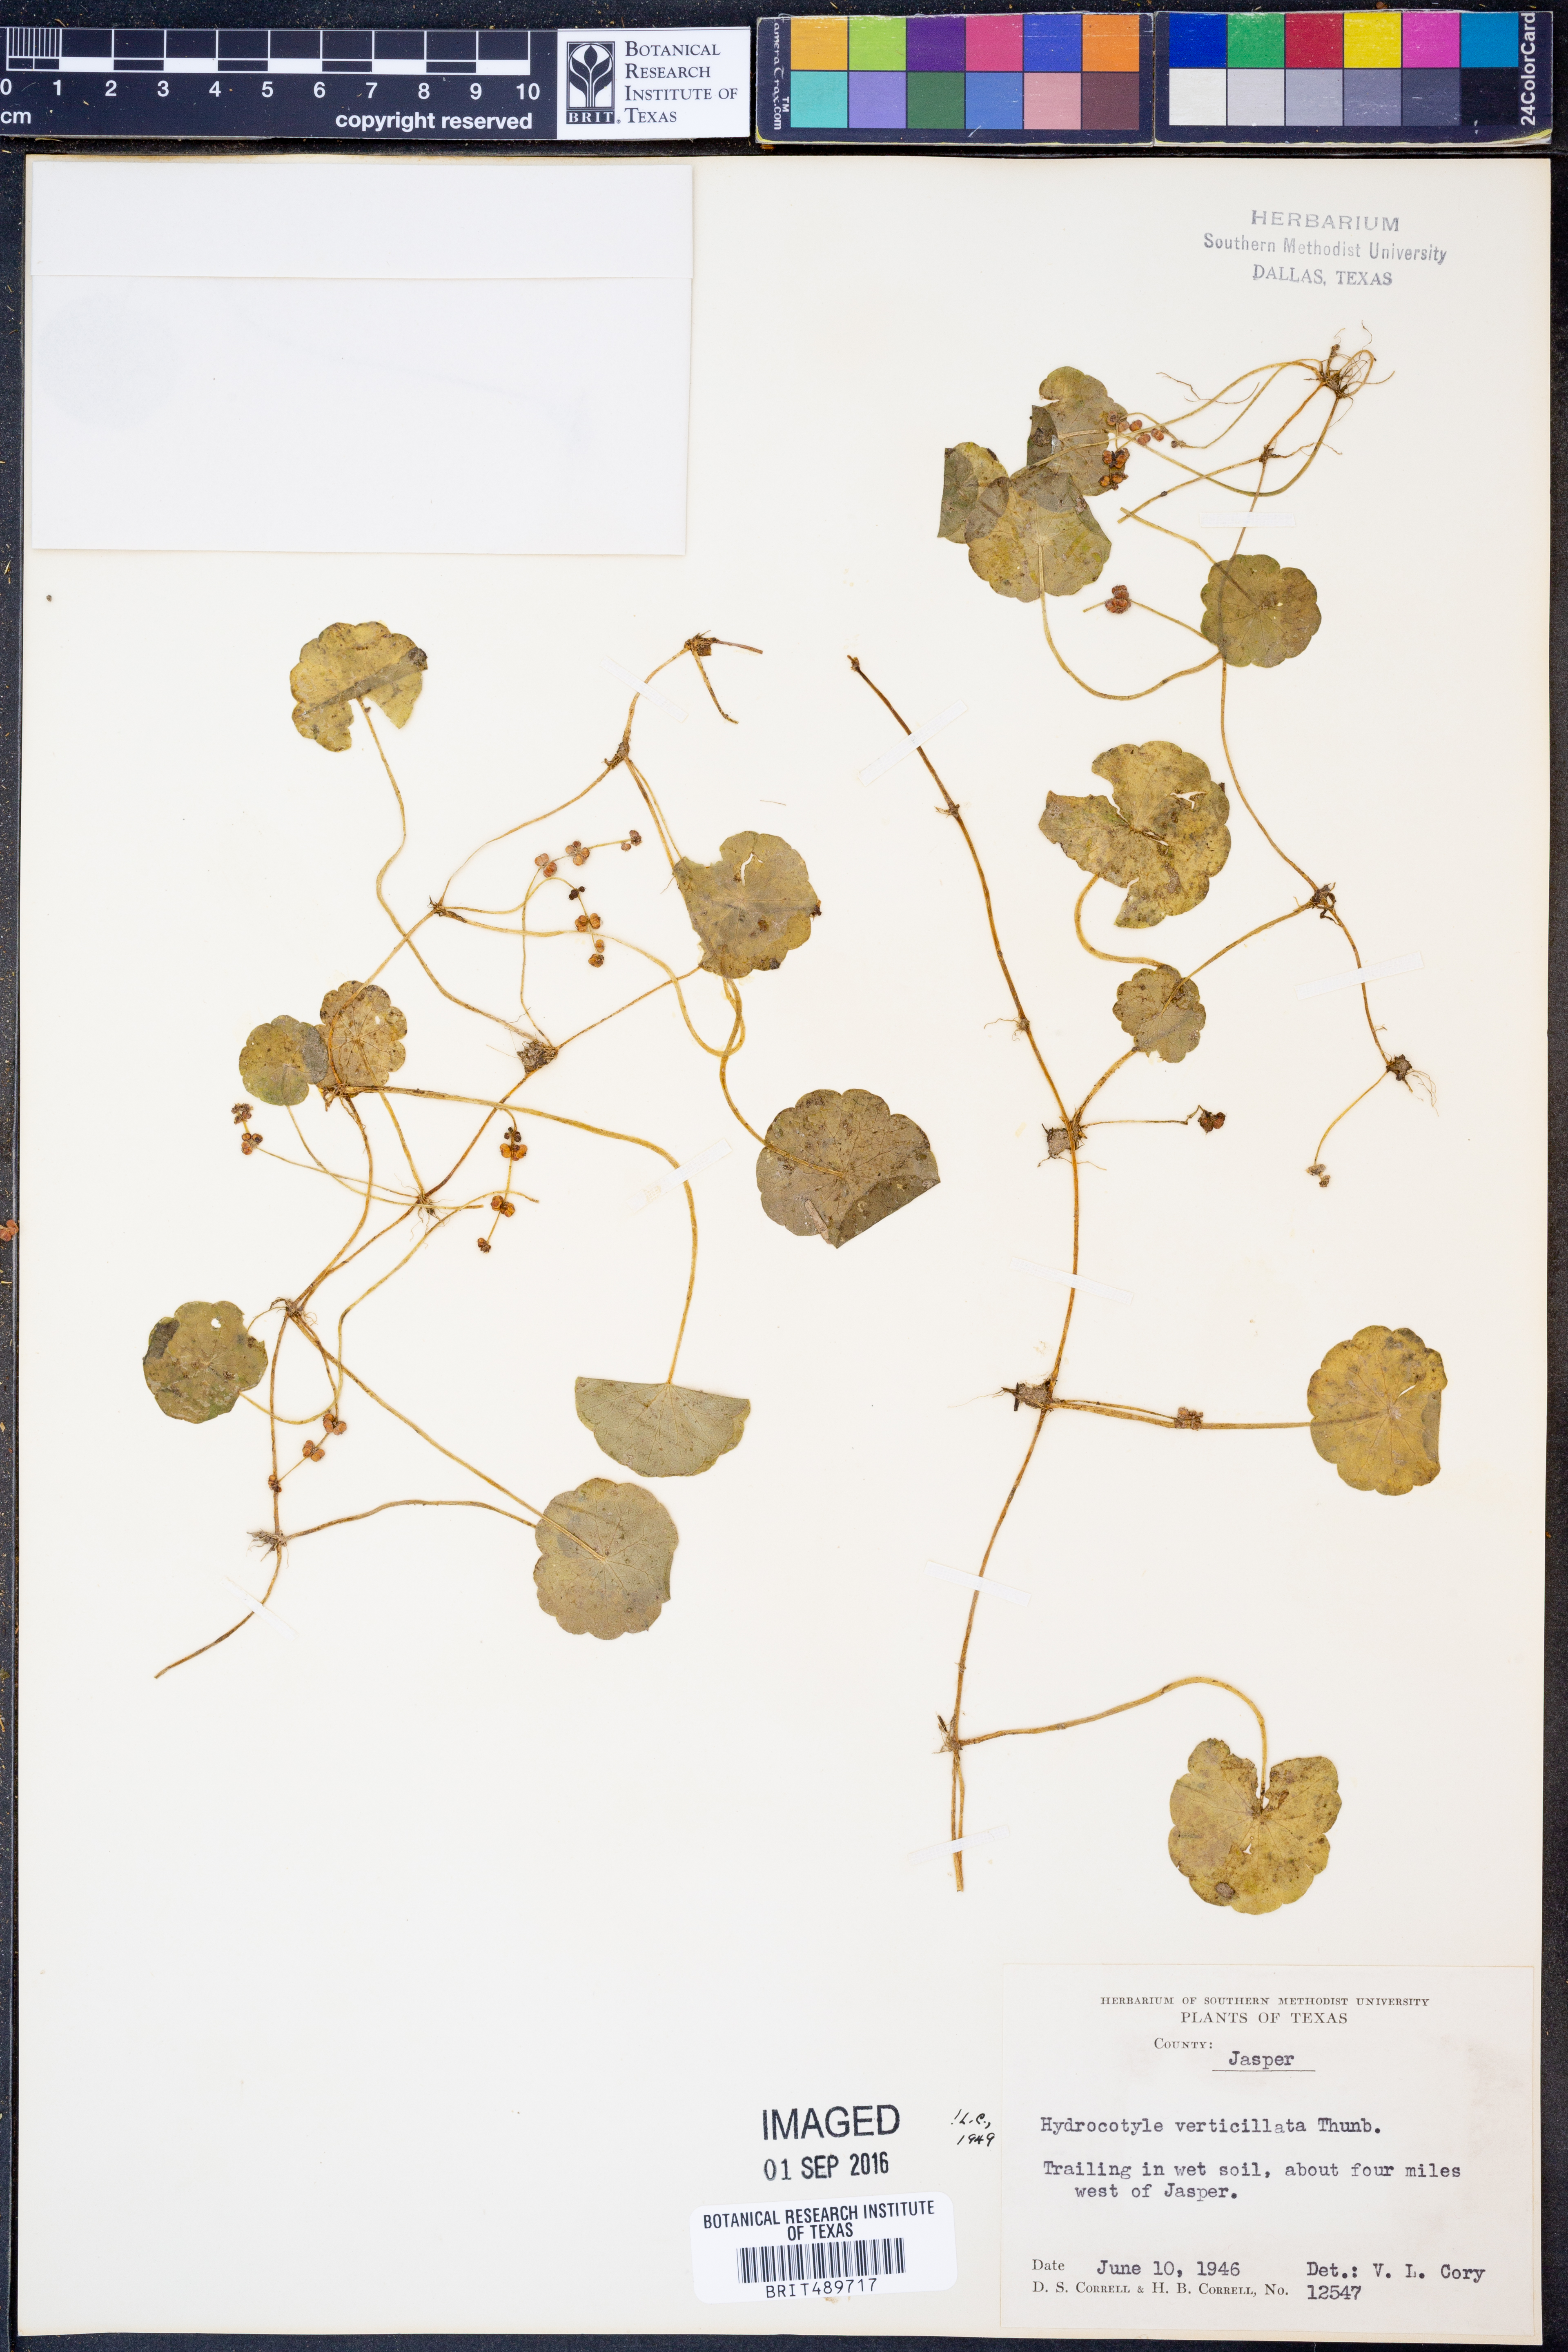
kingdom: Plantae
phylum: Tracheophyta
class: Magnoliopsida
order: Apiales
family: Araliaceae
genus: Hydrocotyle
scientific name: Hydrocotyle verticillata
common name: Whorled marshpennywort
